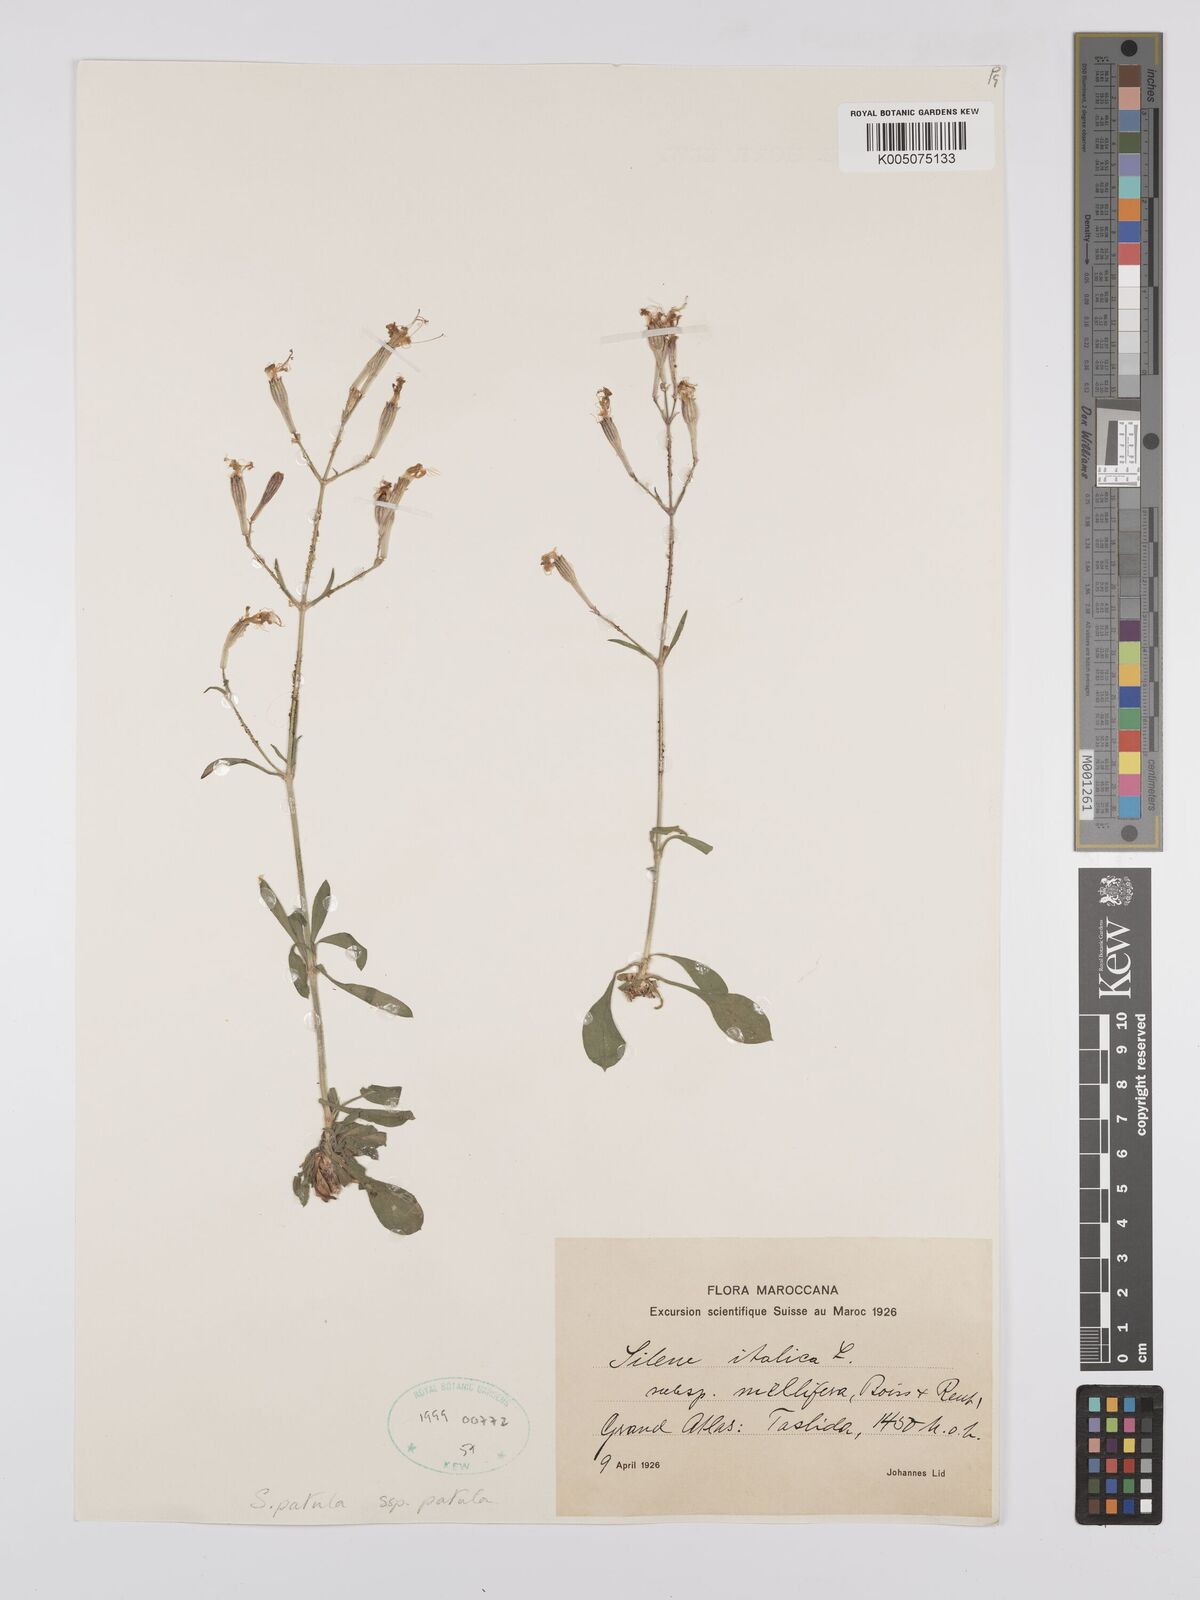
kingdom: Plantae
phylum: Tracheophyta
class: Magnoliopsida
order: Caryophyllales
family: Caryophyllaceae
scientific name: Caryophyllaceae
